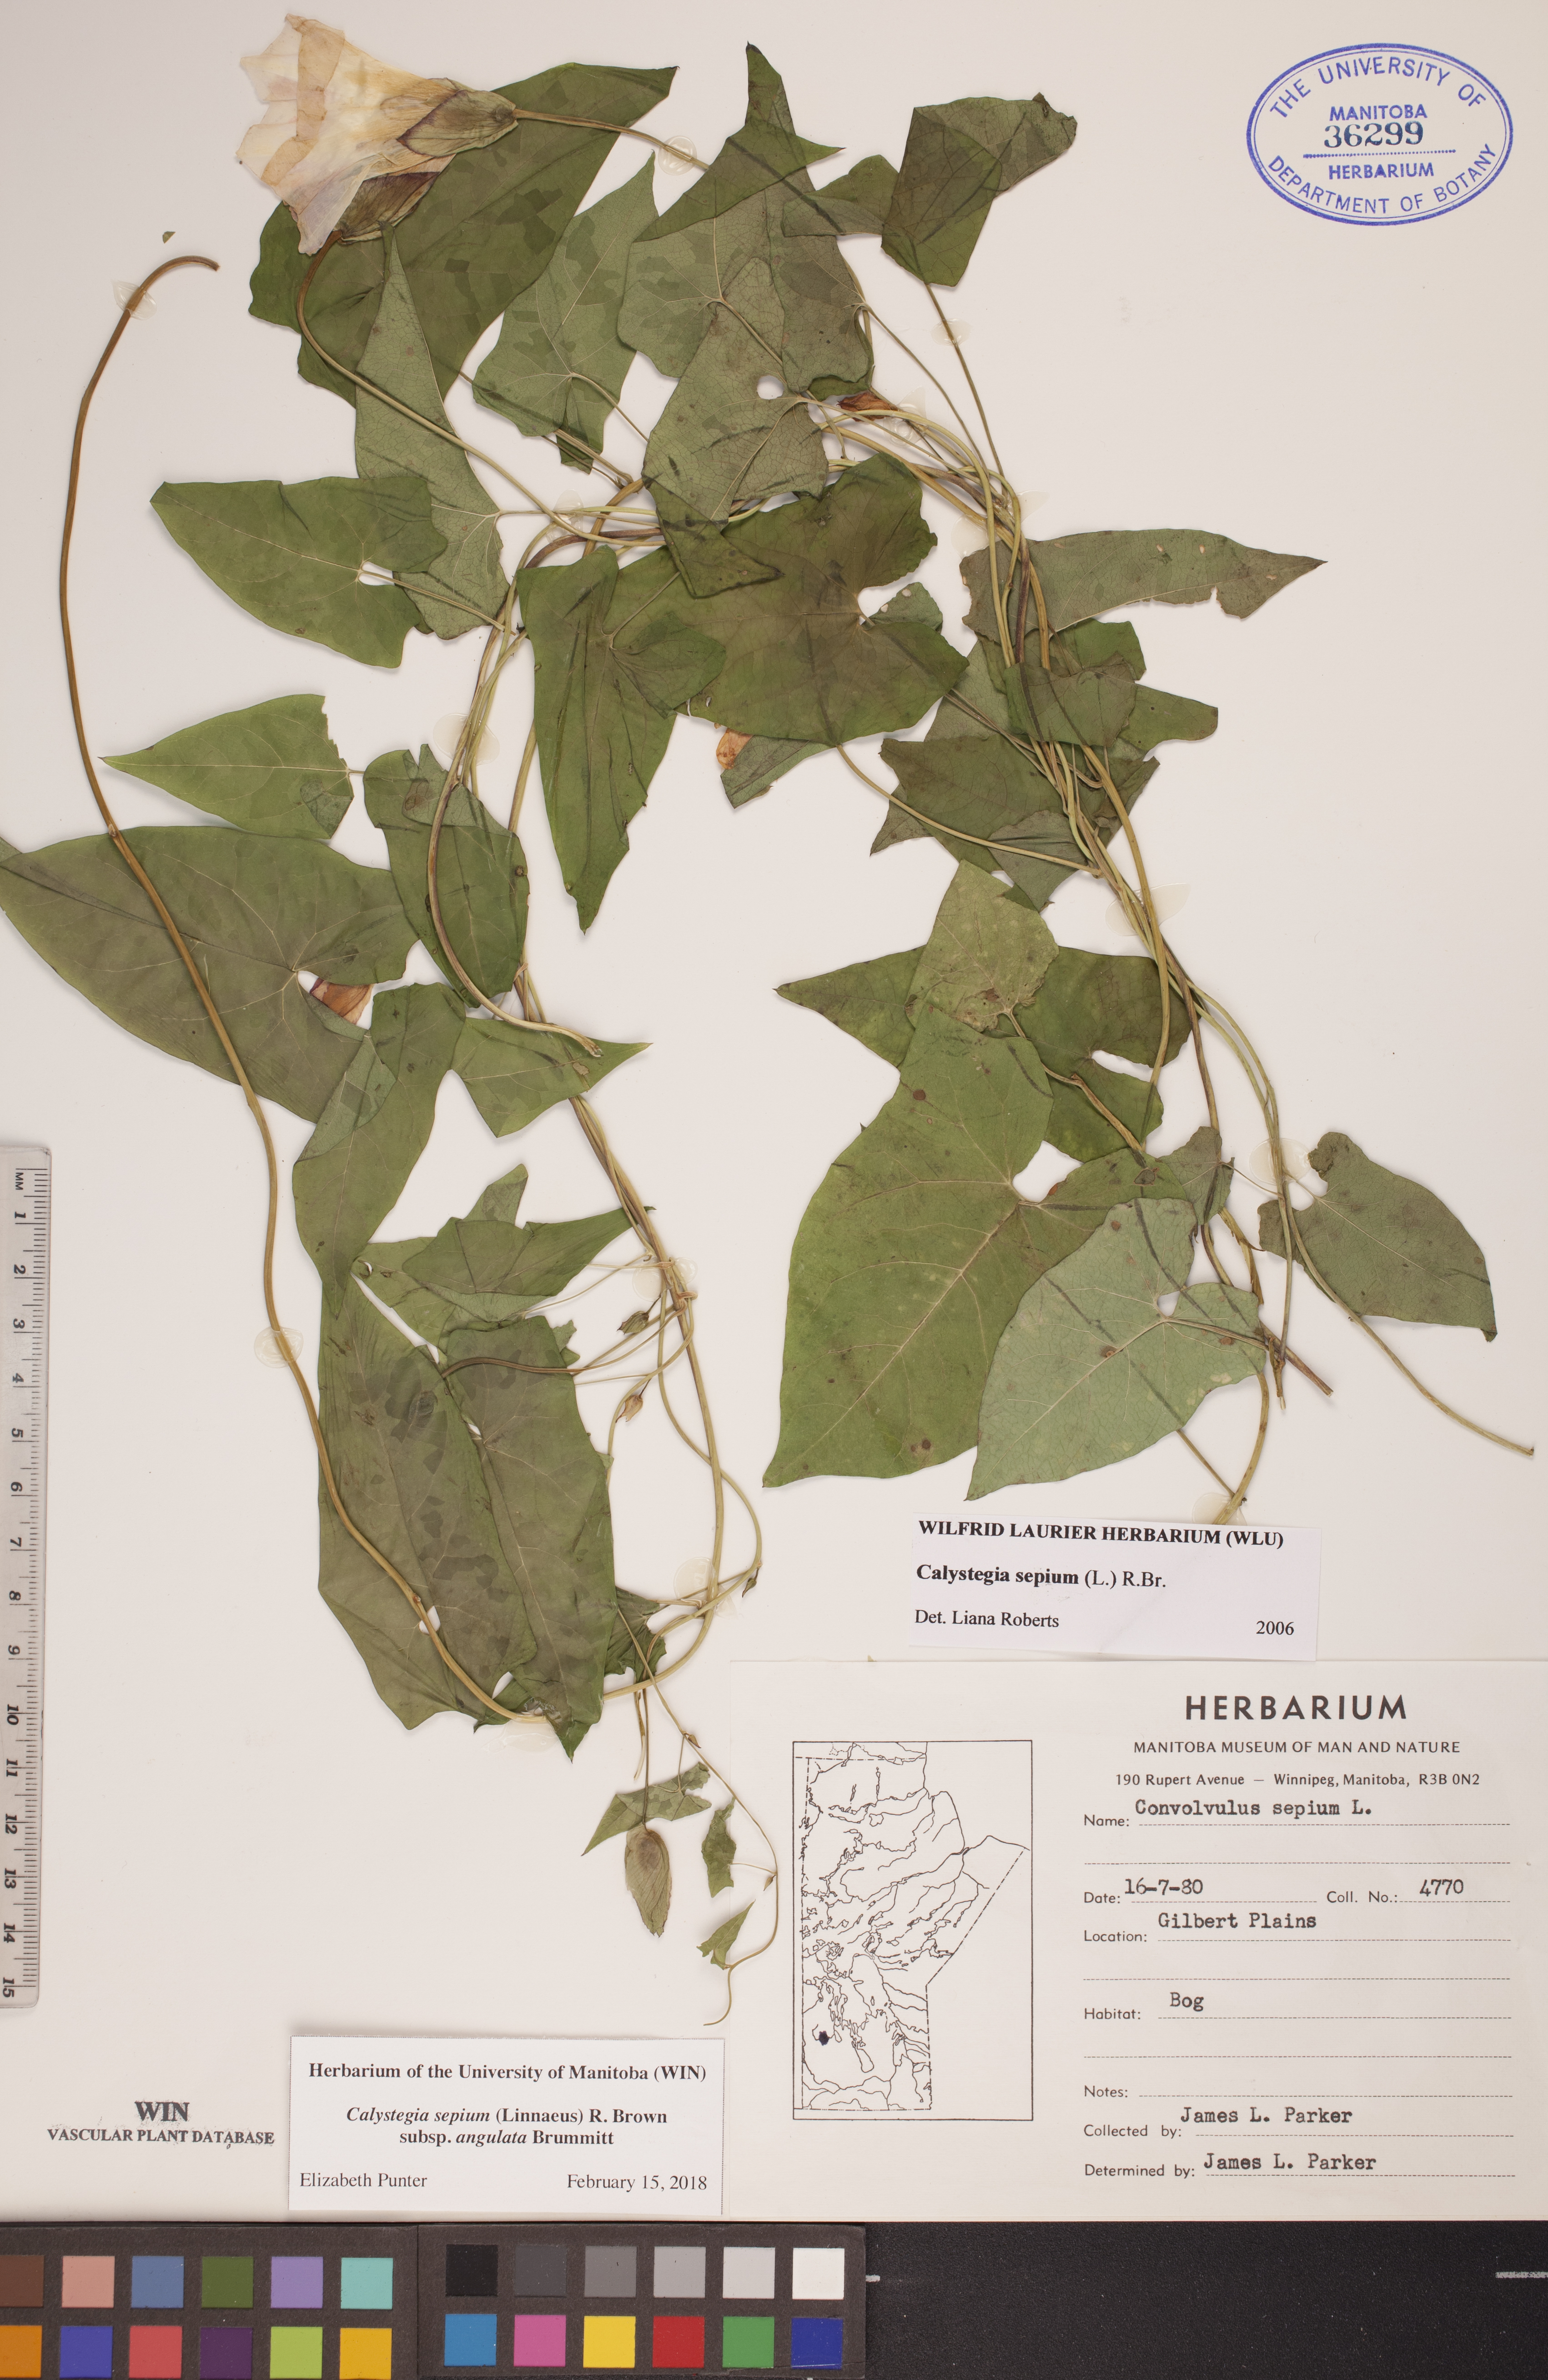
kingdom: Plantae
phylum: Tracheophyta
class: Magnoliopsida
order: Solanales
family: Convolvulaceae
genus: Calystegia
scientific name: Calystegia sepium
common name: Hedge bindweed
